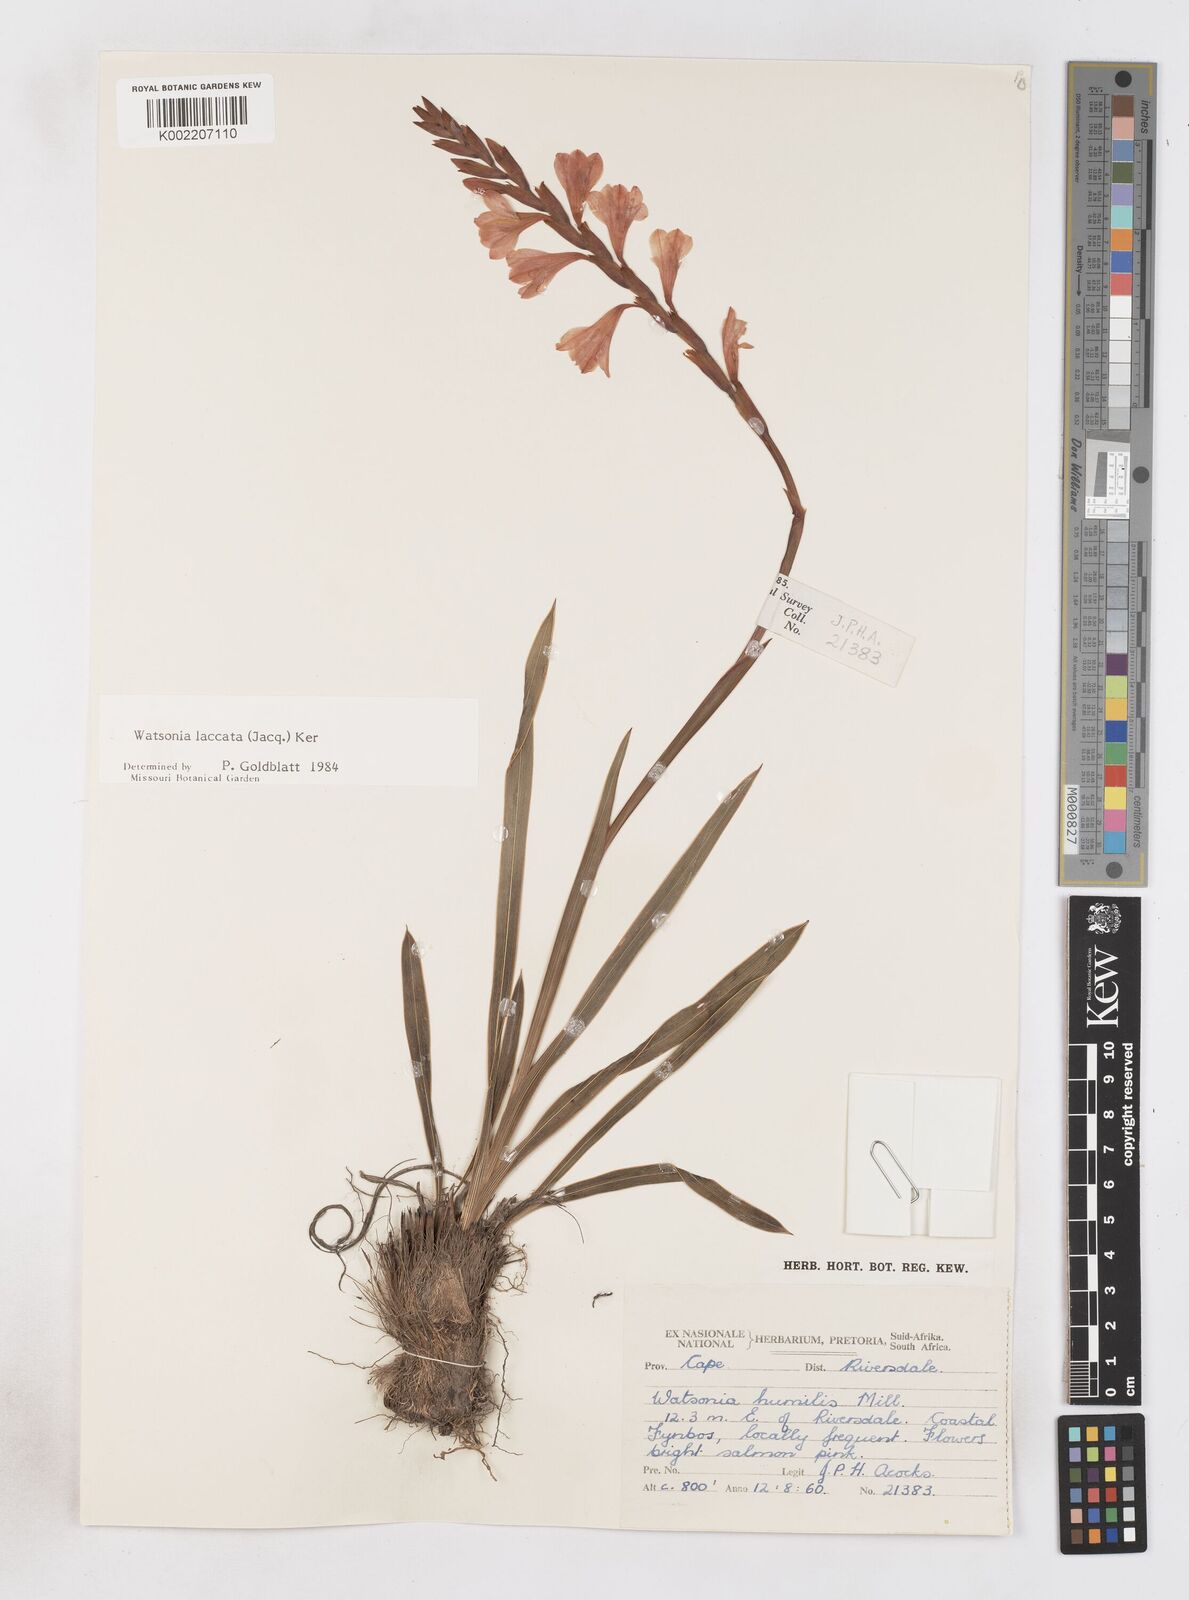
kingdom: Plantae
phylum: Tracheophyta
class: Liliopsida
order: Asparagales
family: Iridaceae
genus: Watsonia
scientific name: Watsonia laccata
